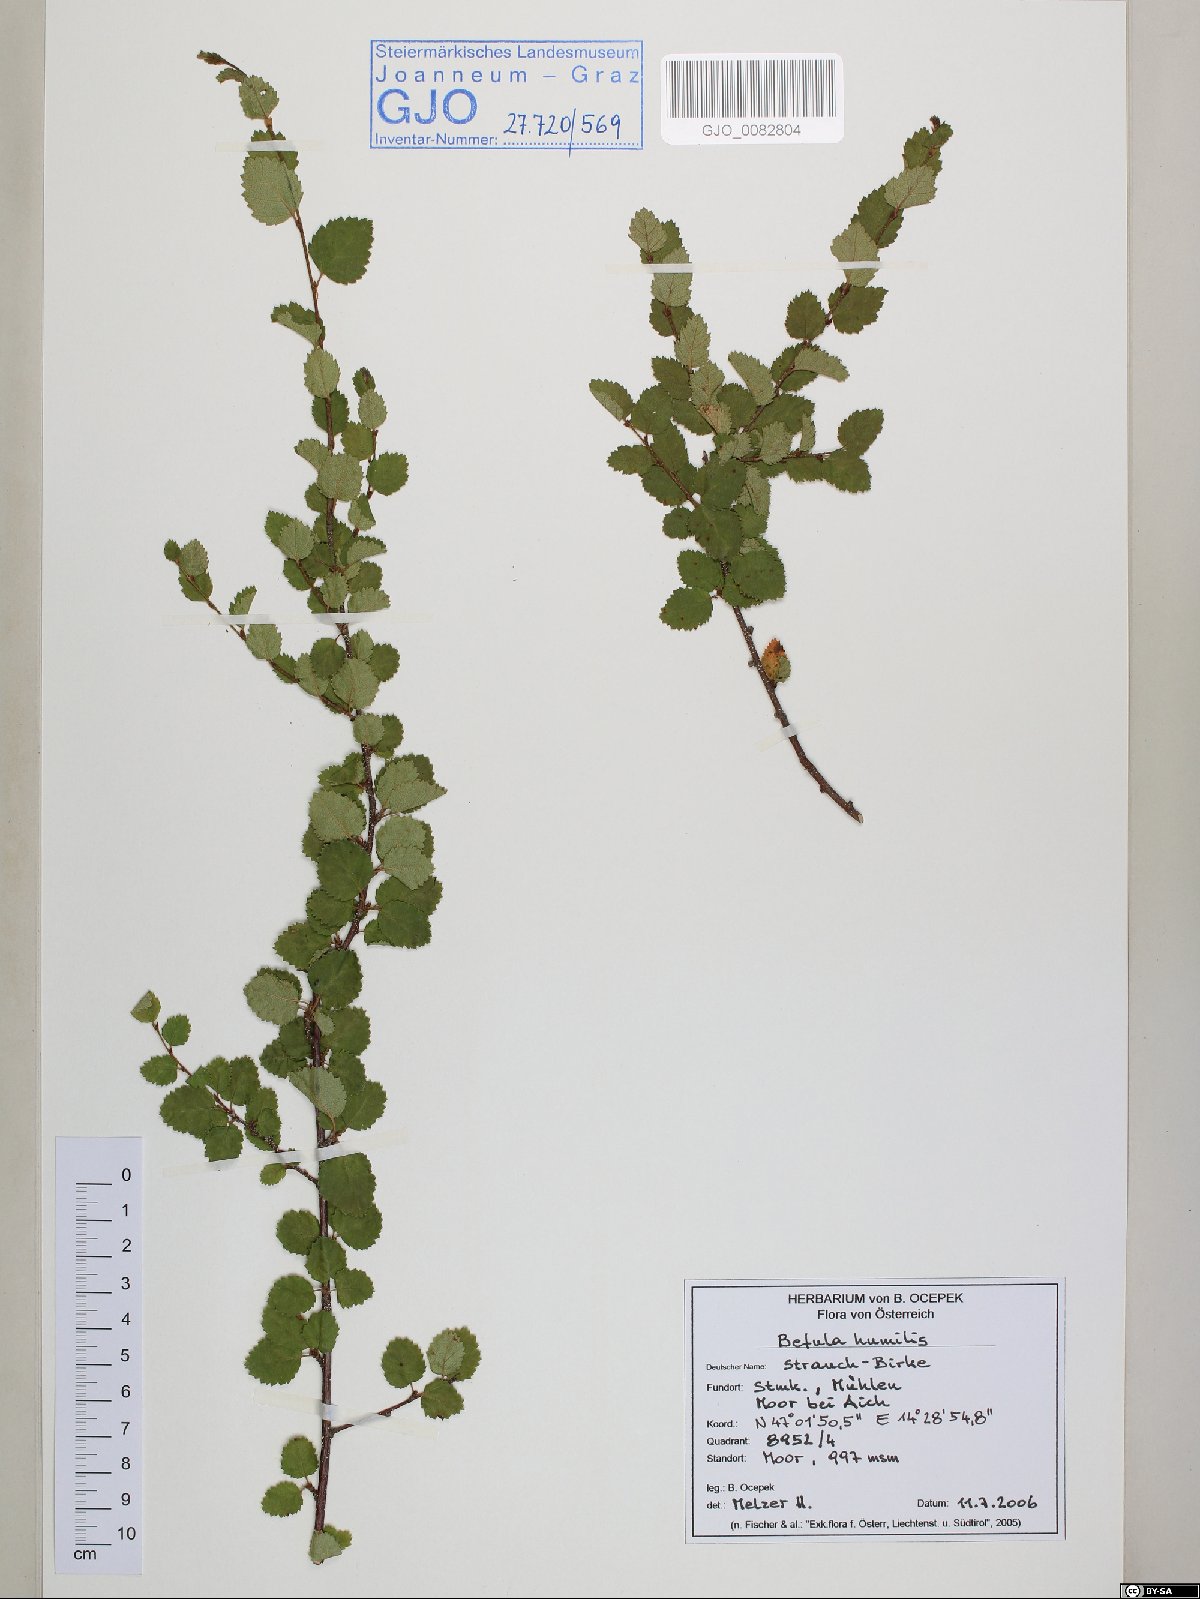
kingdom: Plantae
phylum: Tracheophyta
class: Magnoliopsida
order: Fagales
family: Betulaceae
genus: Betula
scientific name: Betula humilis
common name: Shrubby birch
